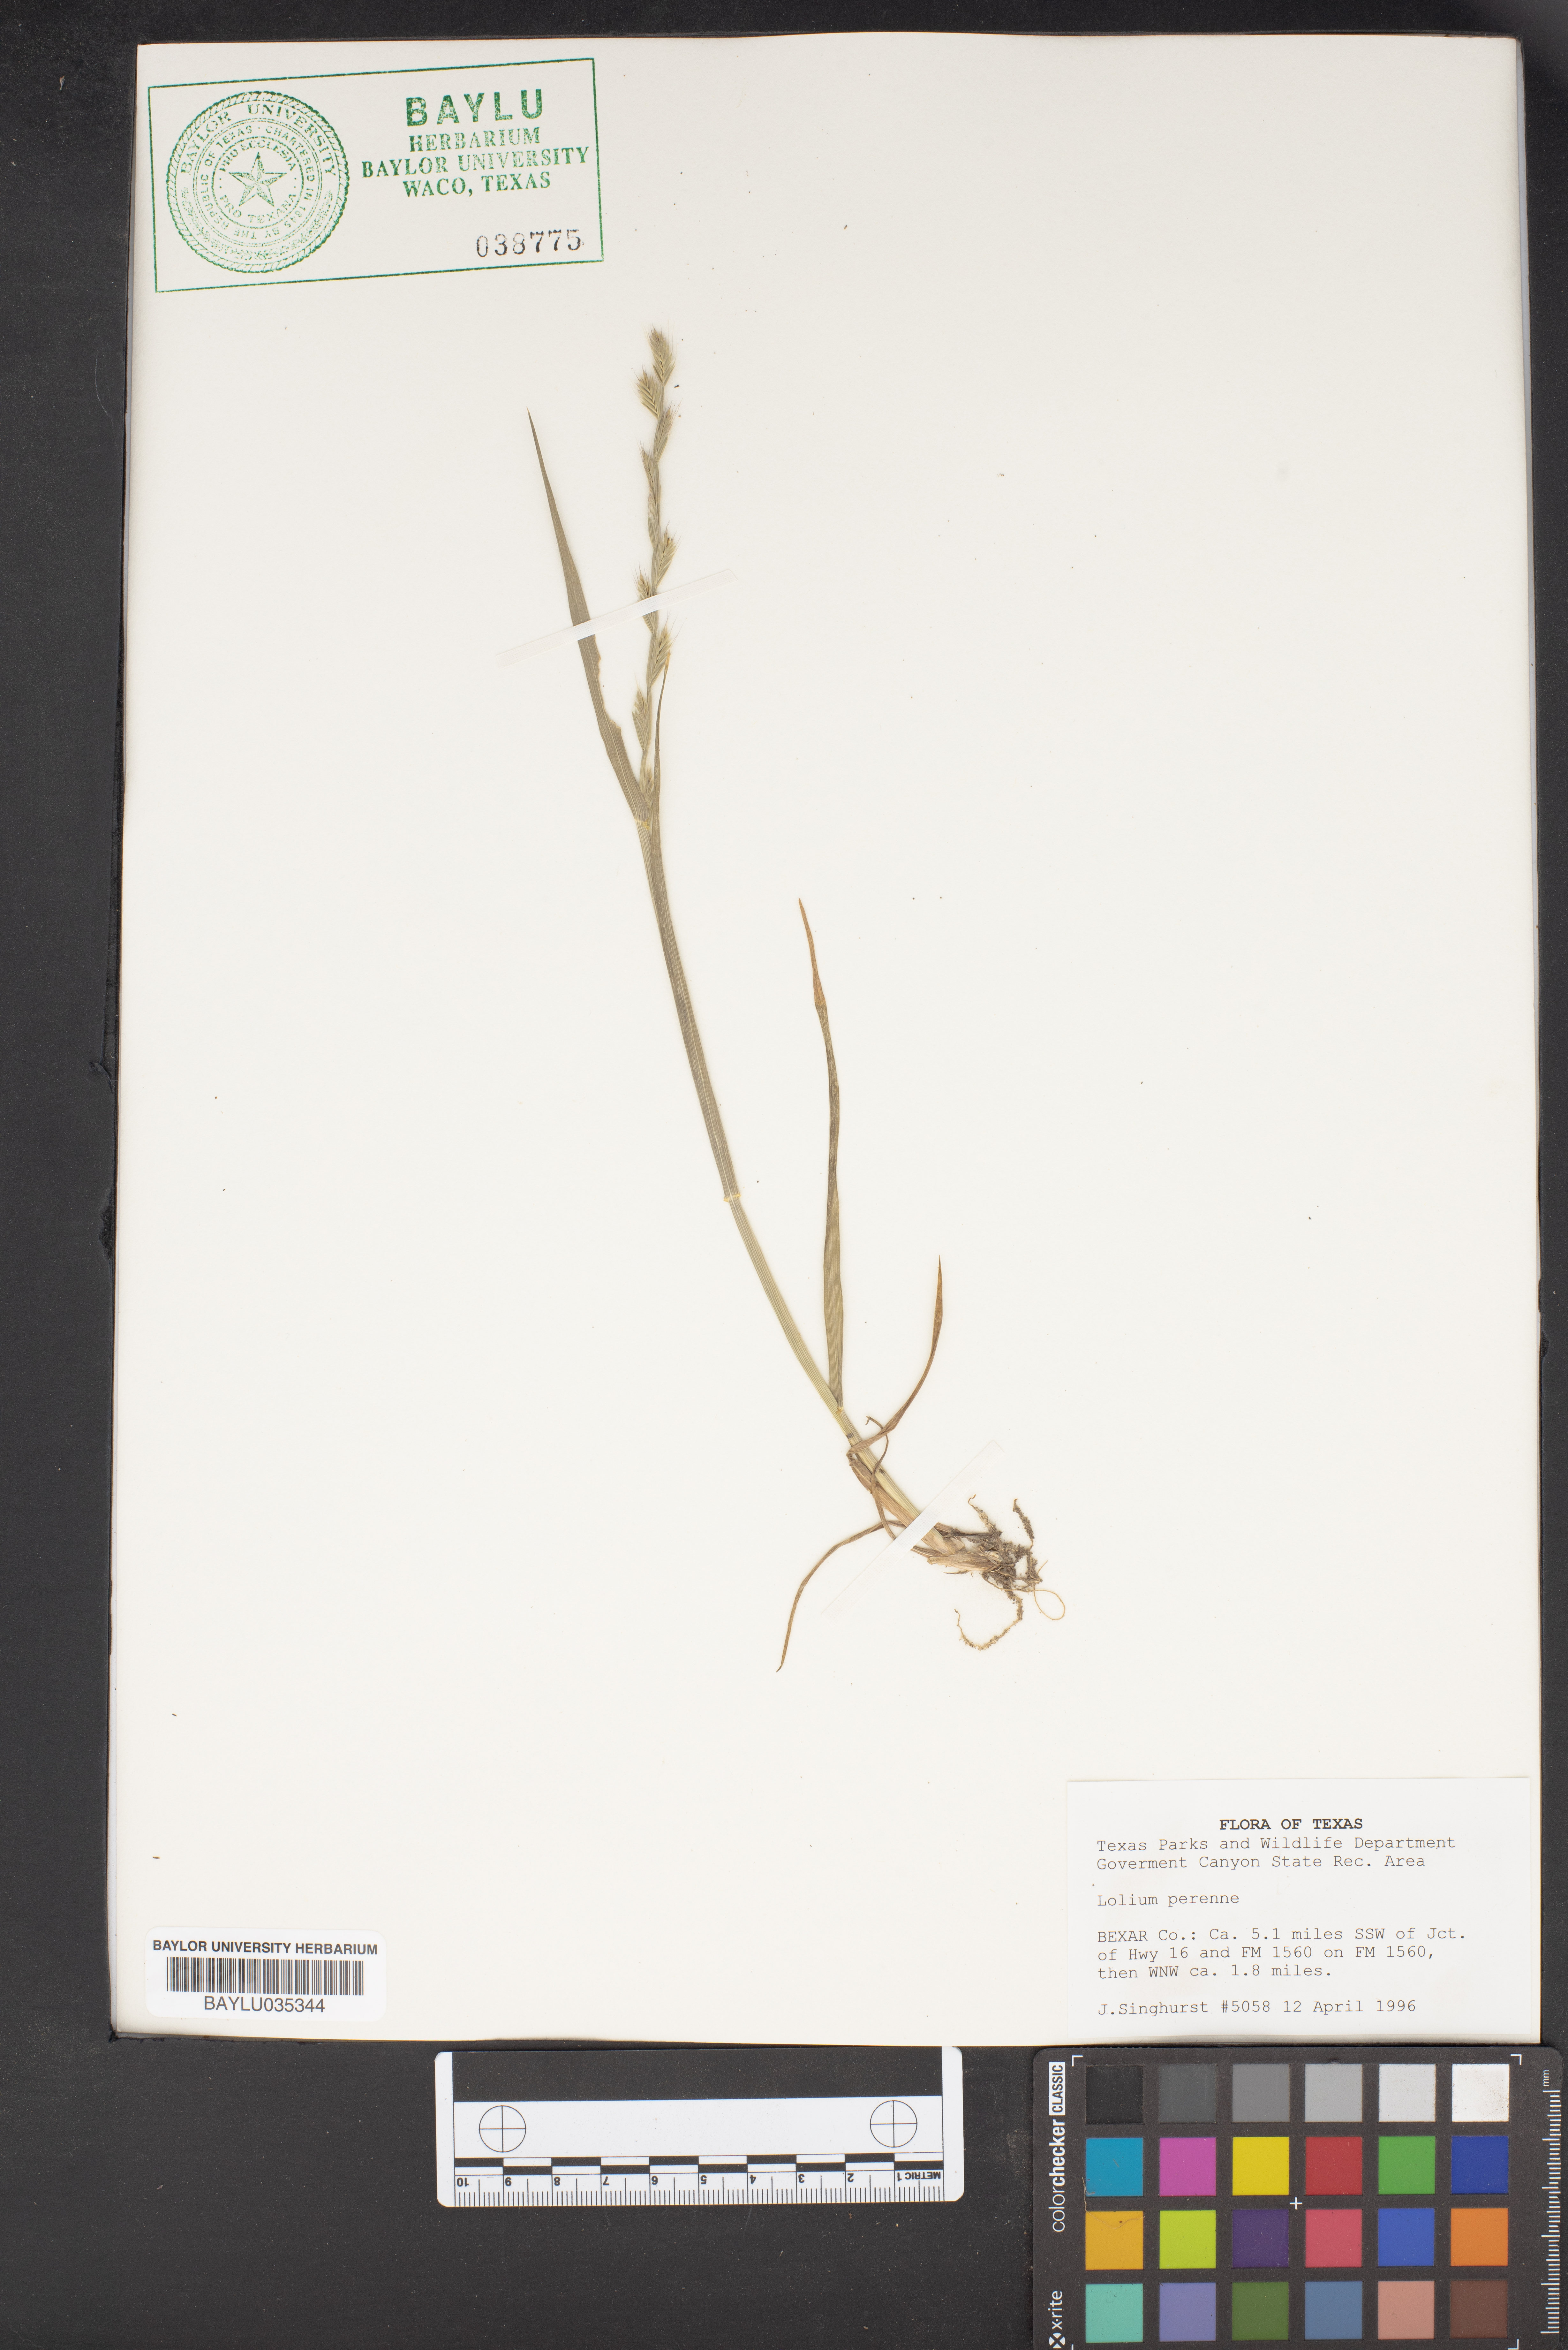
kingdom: Plantae
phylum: Tracheophyta
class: Liliopsida
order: Poales
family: Poaceae
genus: Lolium
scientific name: Lolium perenne
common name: Perennial ryegrass
